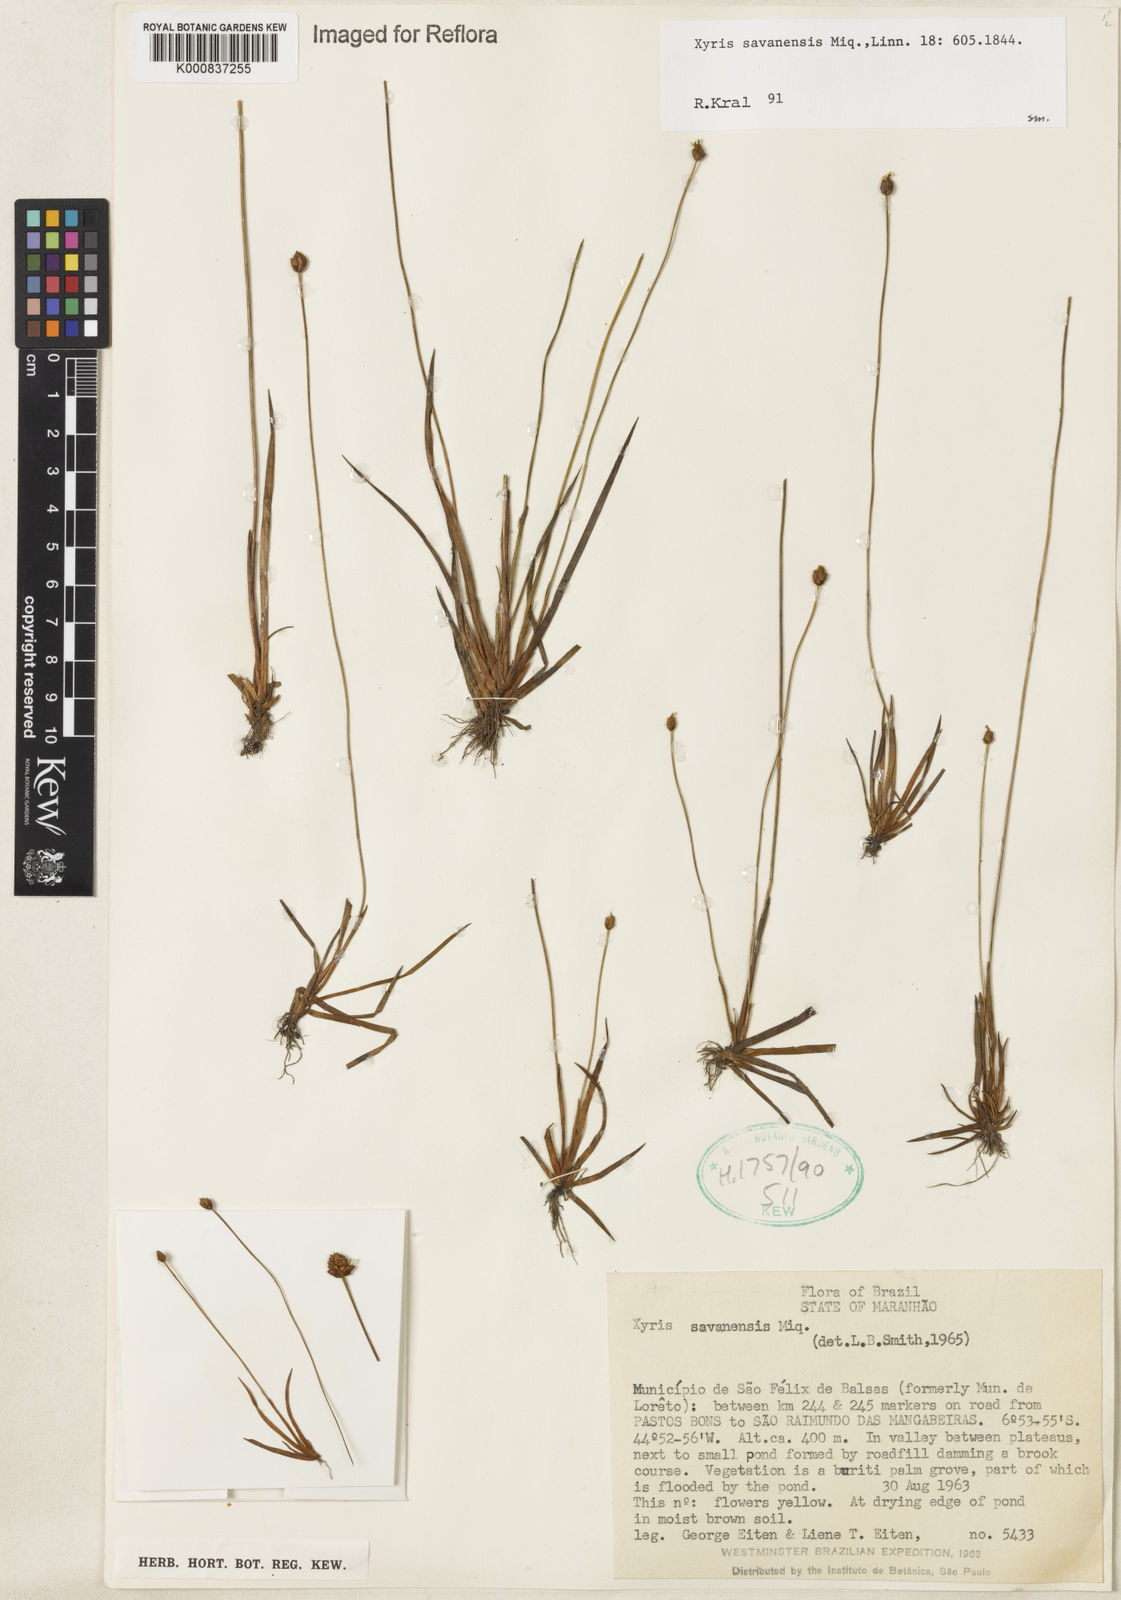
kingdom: Plantae
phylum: Tracheophyta
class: Liliopsida
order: Poales
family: Xyridaceae
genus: Xyris
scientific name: Xyris savanensis
